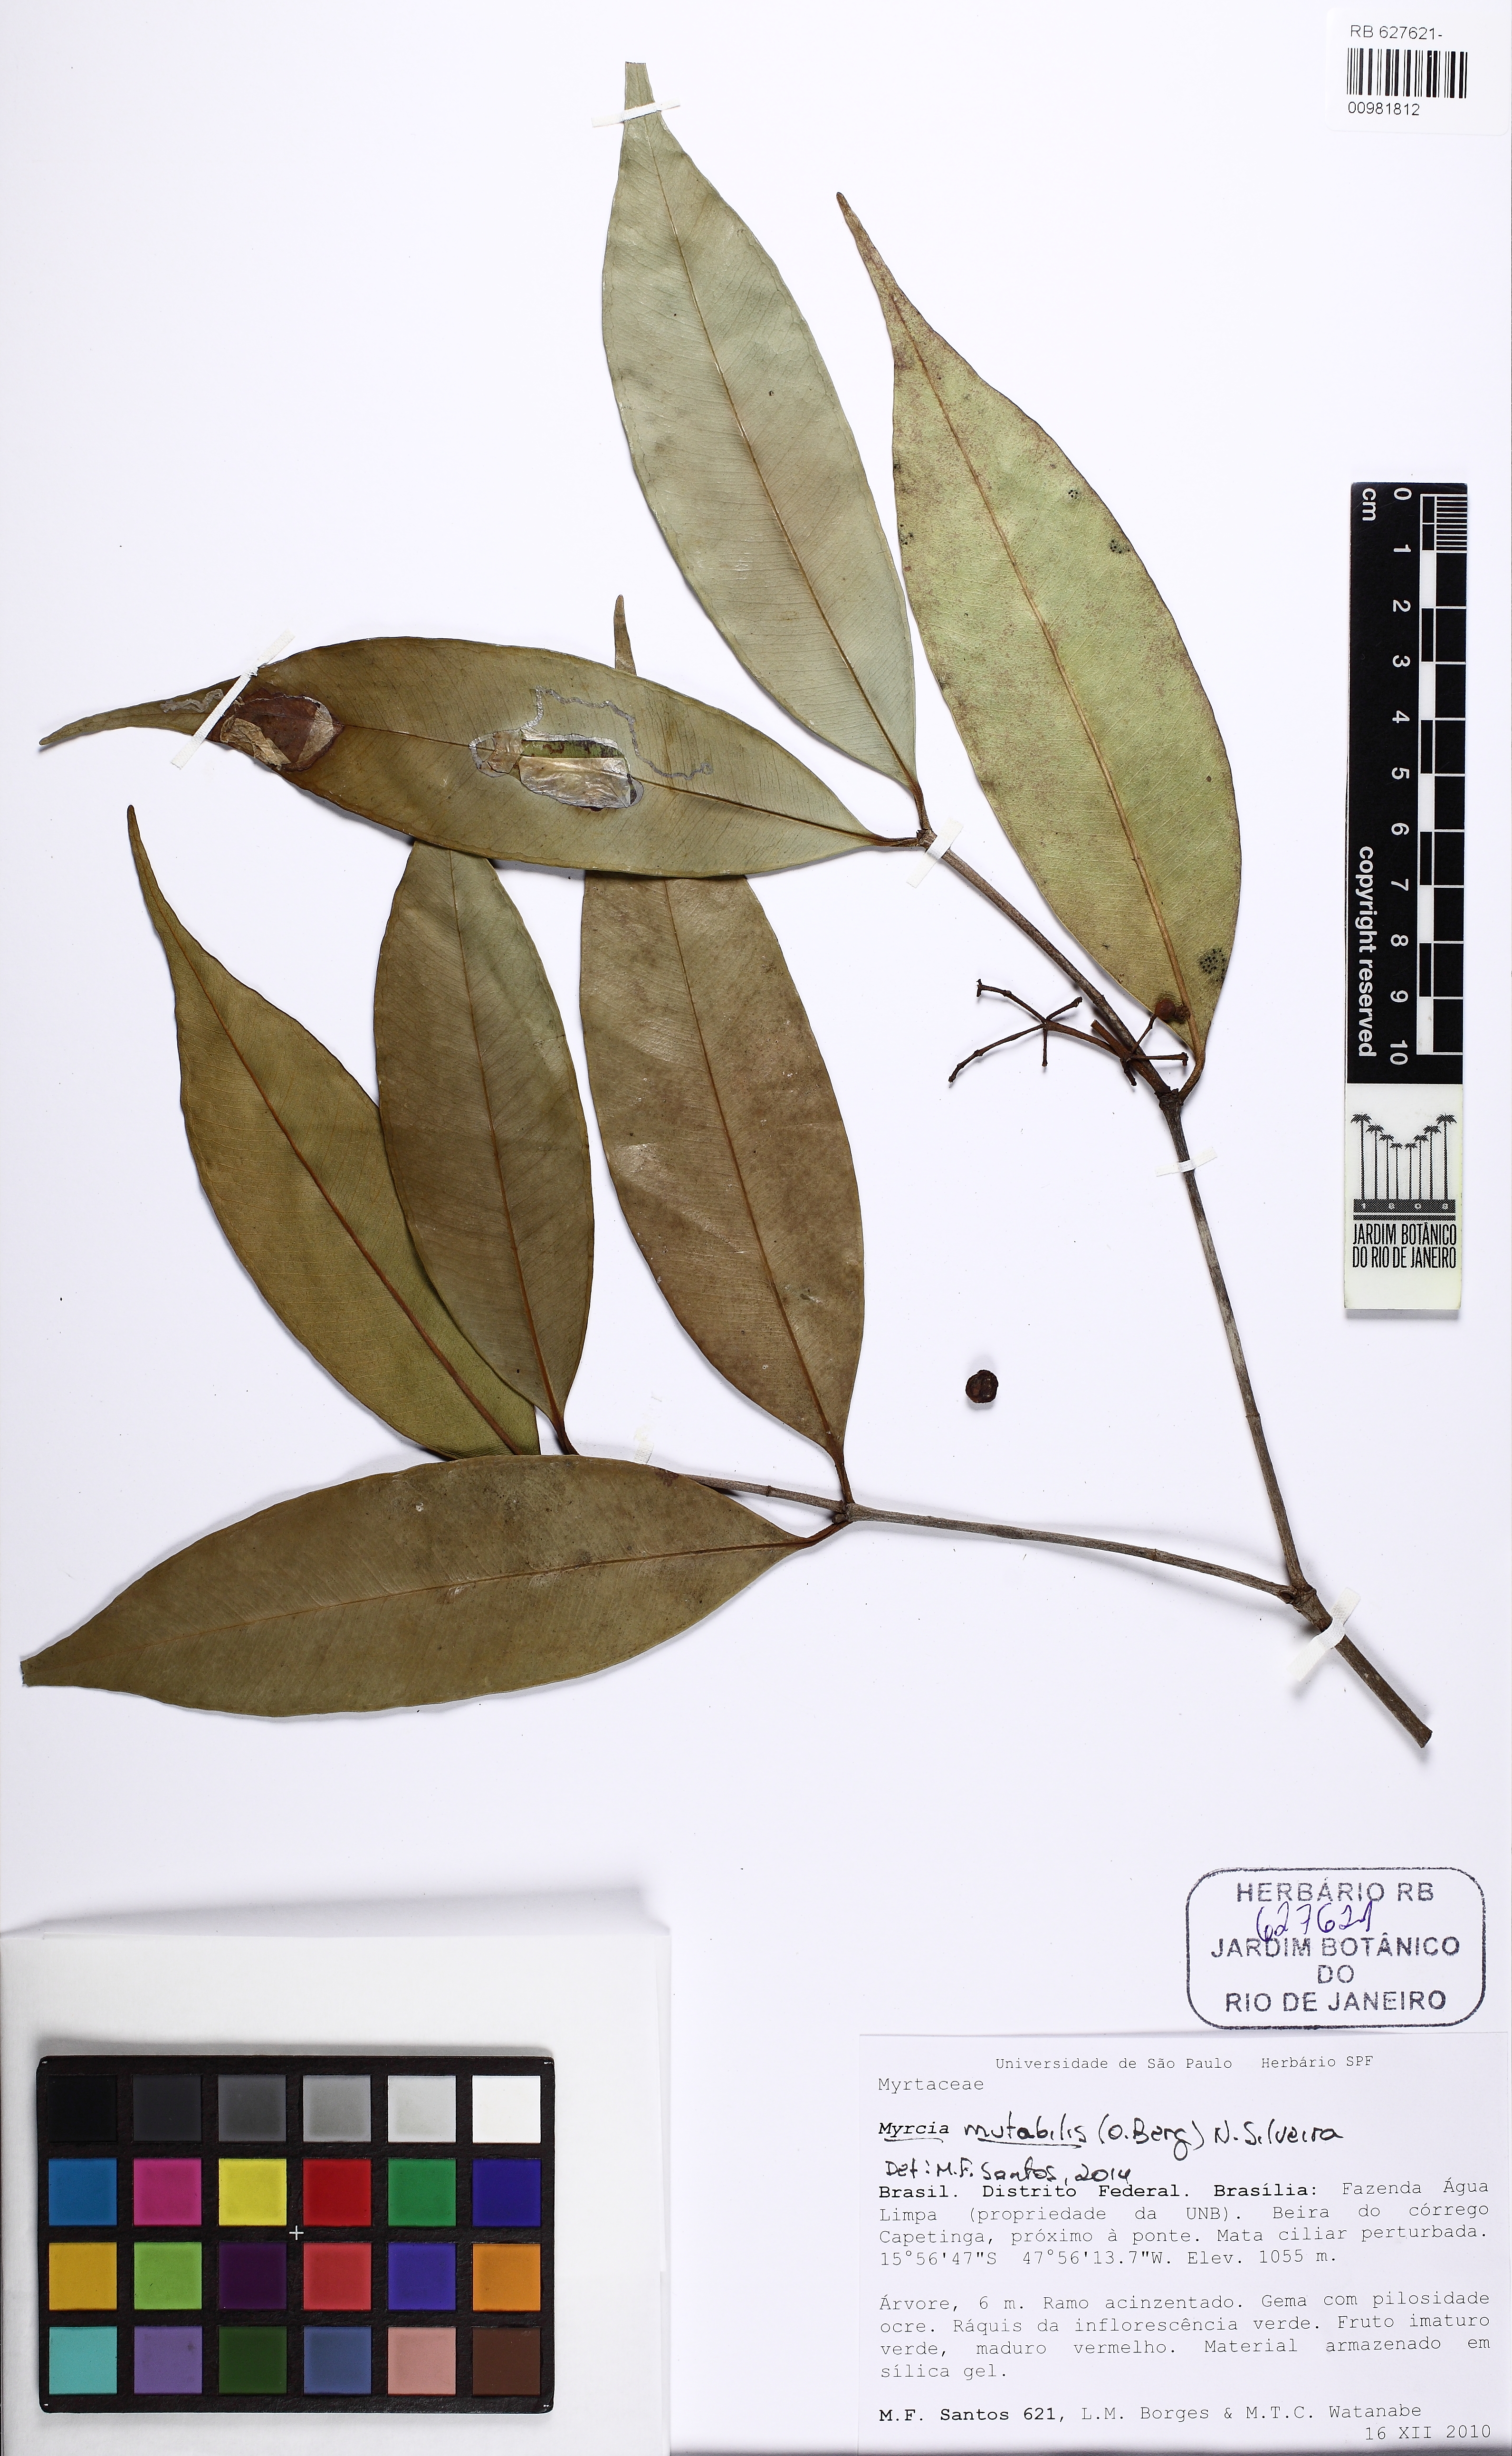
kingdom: Plantae
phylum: Tracheophyta
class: Magnoliopsida
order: Myrtales
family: Myrtaceae
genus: Myrcia
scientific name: Myrcia mutabilis
